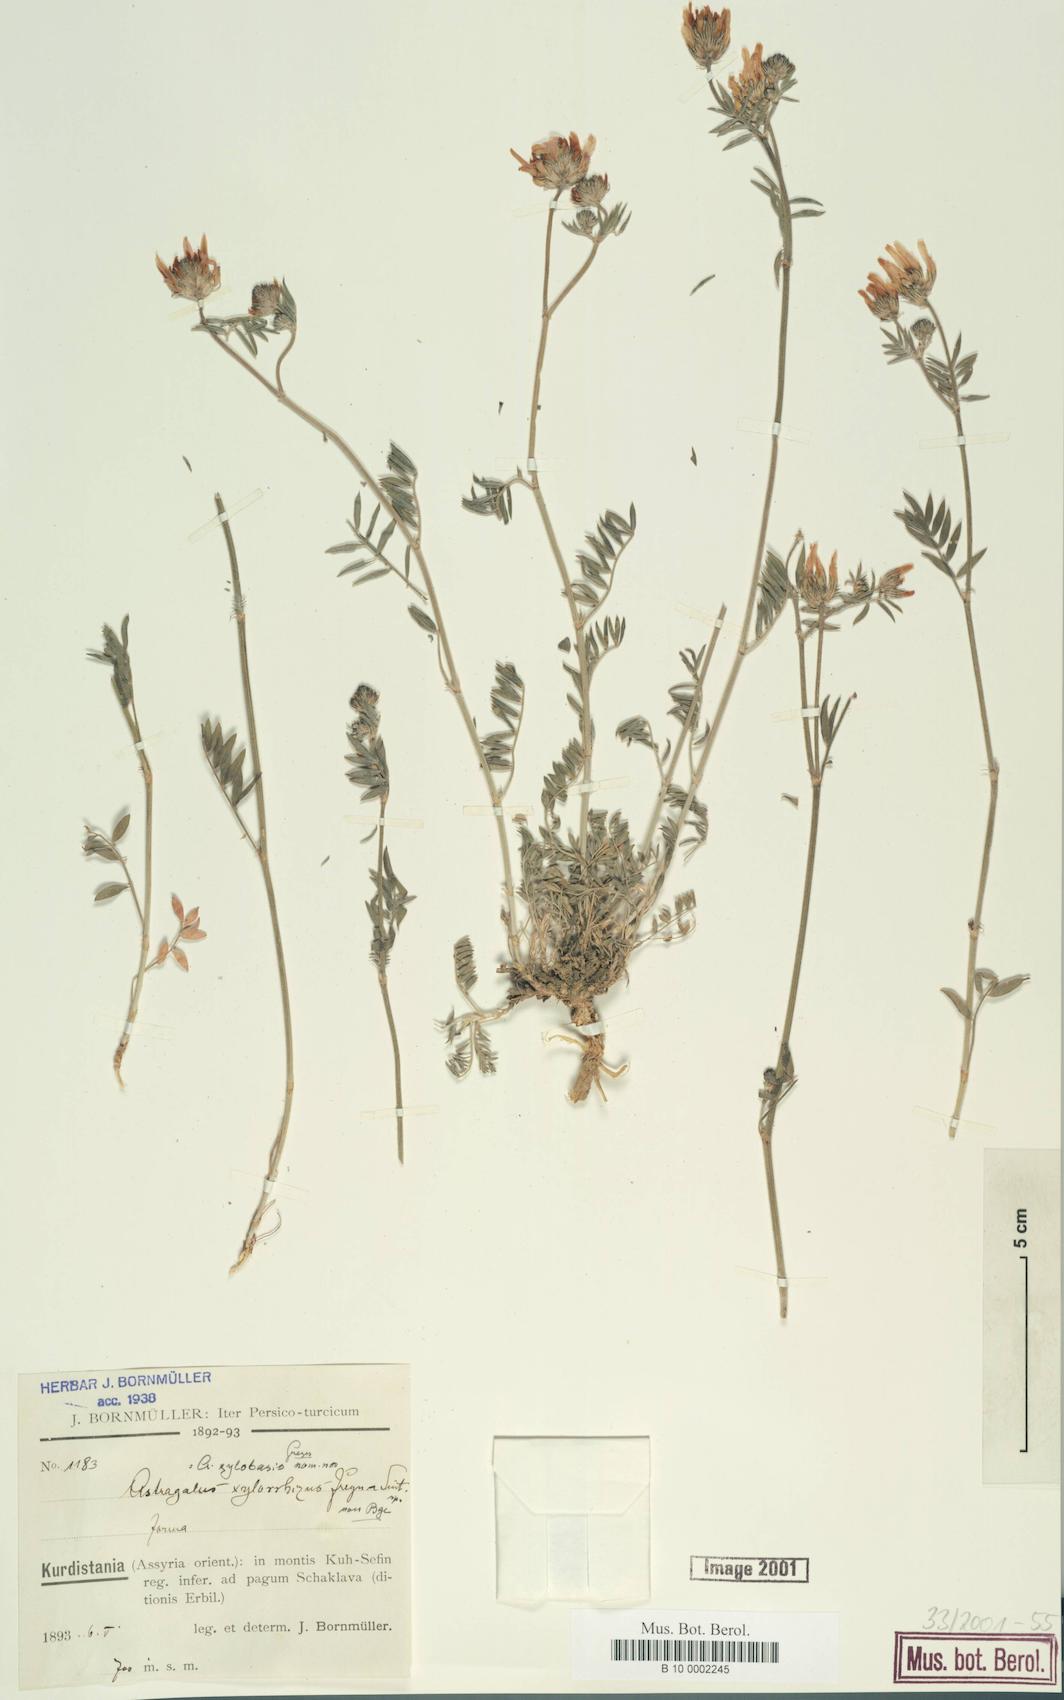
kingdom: Plantae
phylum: Tracheophyta
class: Magnoliopsida
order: Fabales
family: Fabaceae
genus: Astragalus
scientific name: Astragalus aduncus
